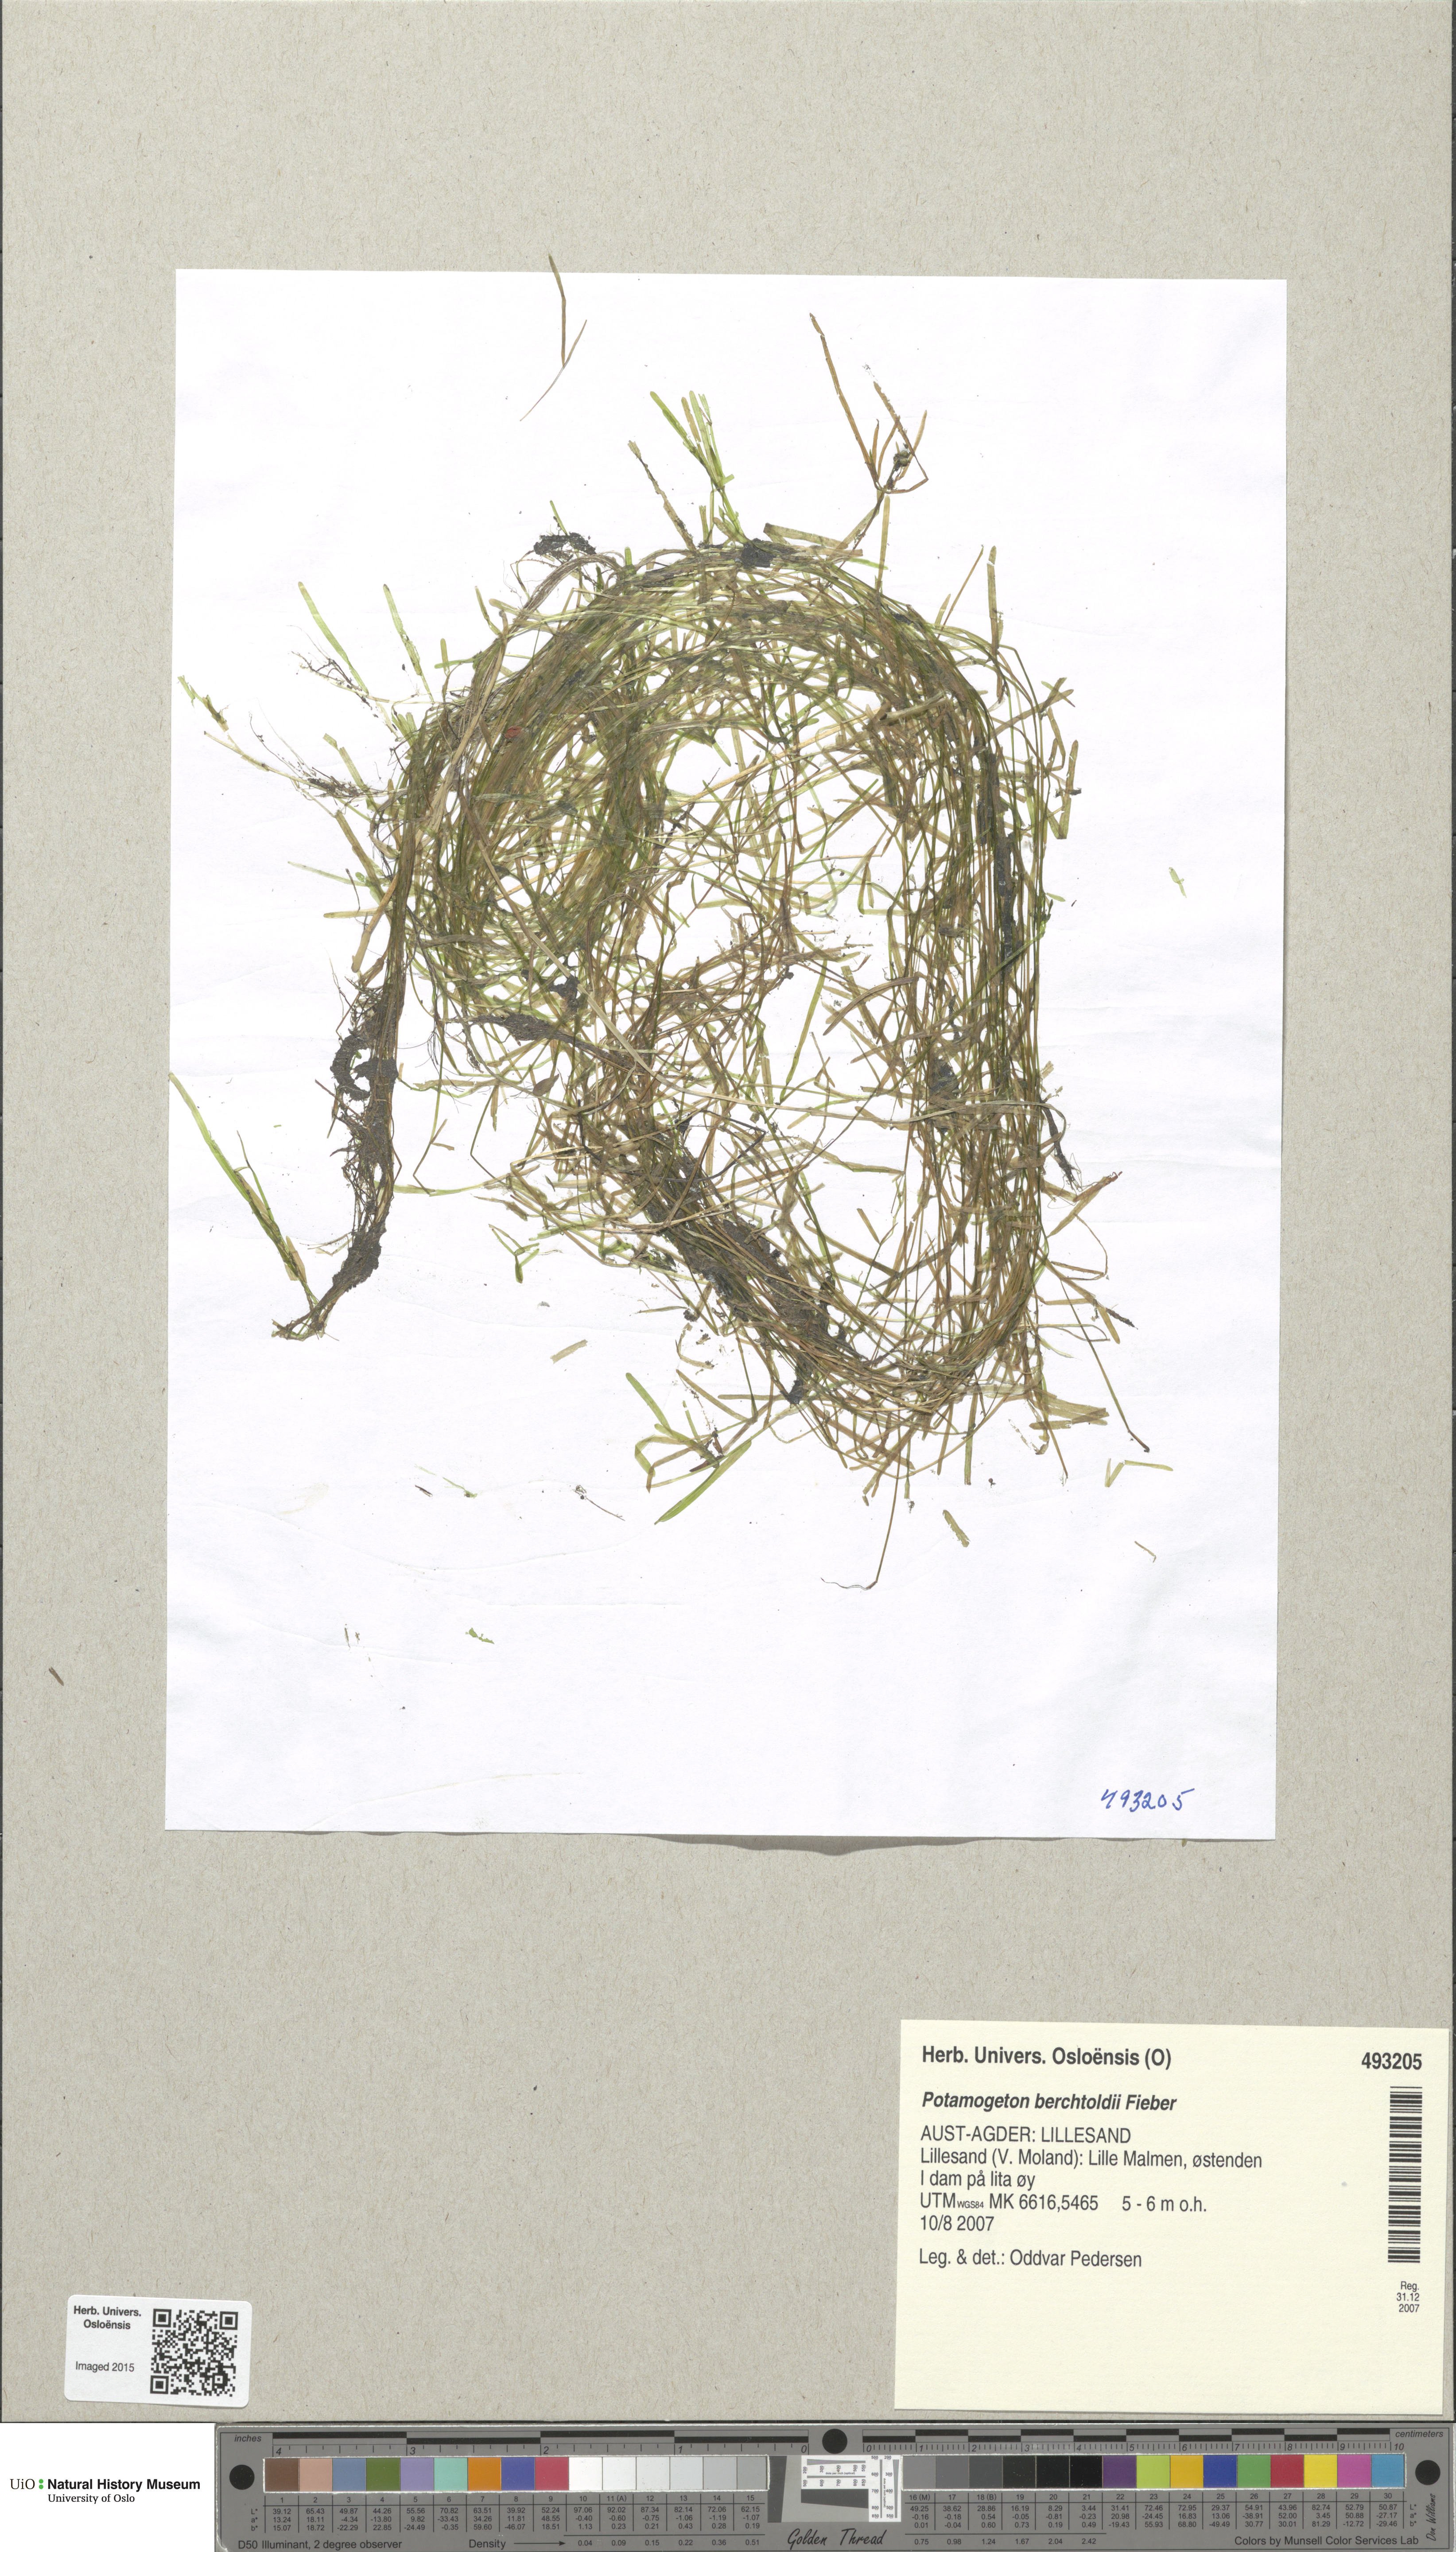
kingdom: Plantae
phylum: Tracheophyta
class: Liliopsida
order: Alismatales
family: Potamogetonaceae
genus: Potamogeton
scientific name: Potamogeton berchtoldii
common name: Small pondweed
